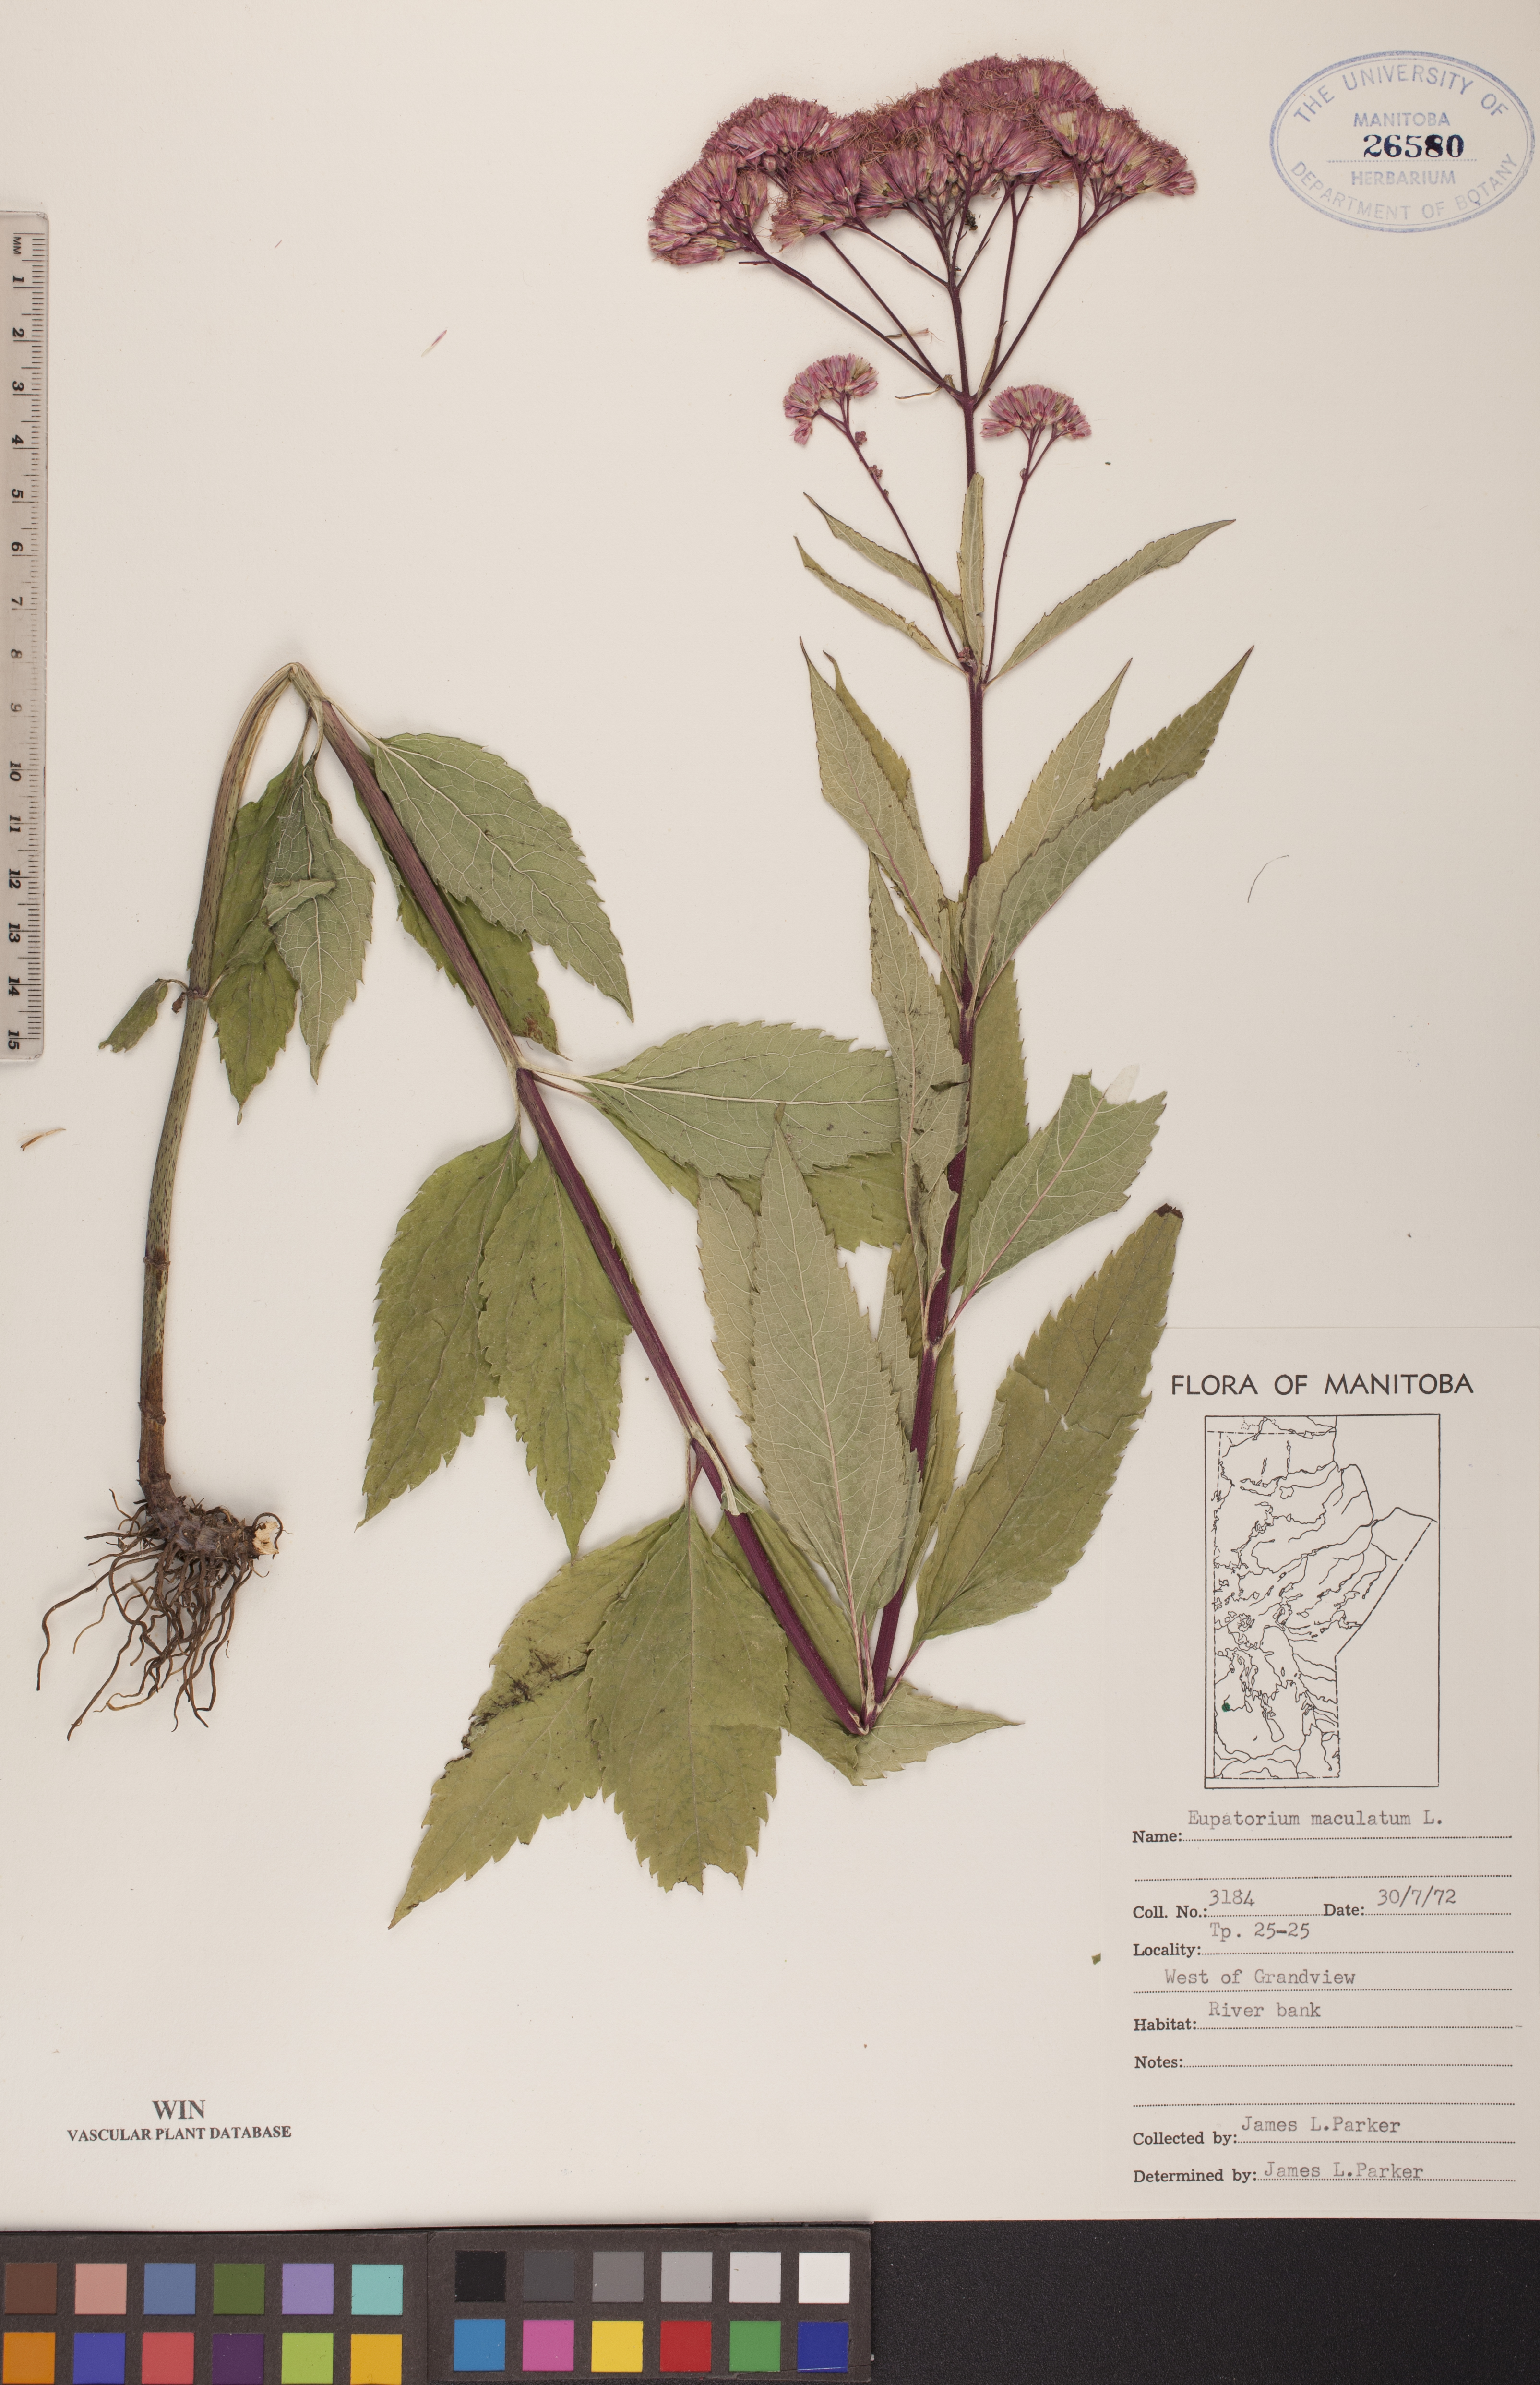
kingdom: Plantae
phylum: Tracheophyta
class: Magnoliopsida
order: Asterales
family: Asteraceae
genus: Eutrochium
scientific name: Eutrochium maculatum
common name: Spotted joe pye weed
